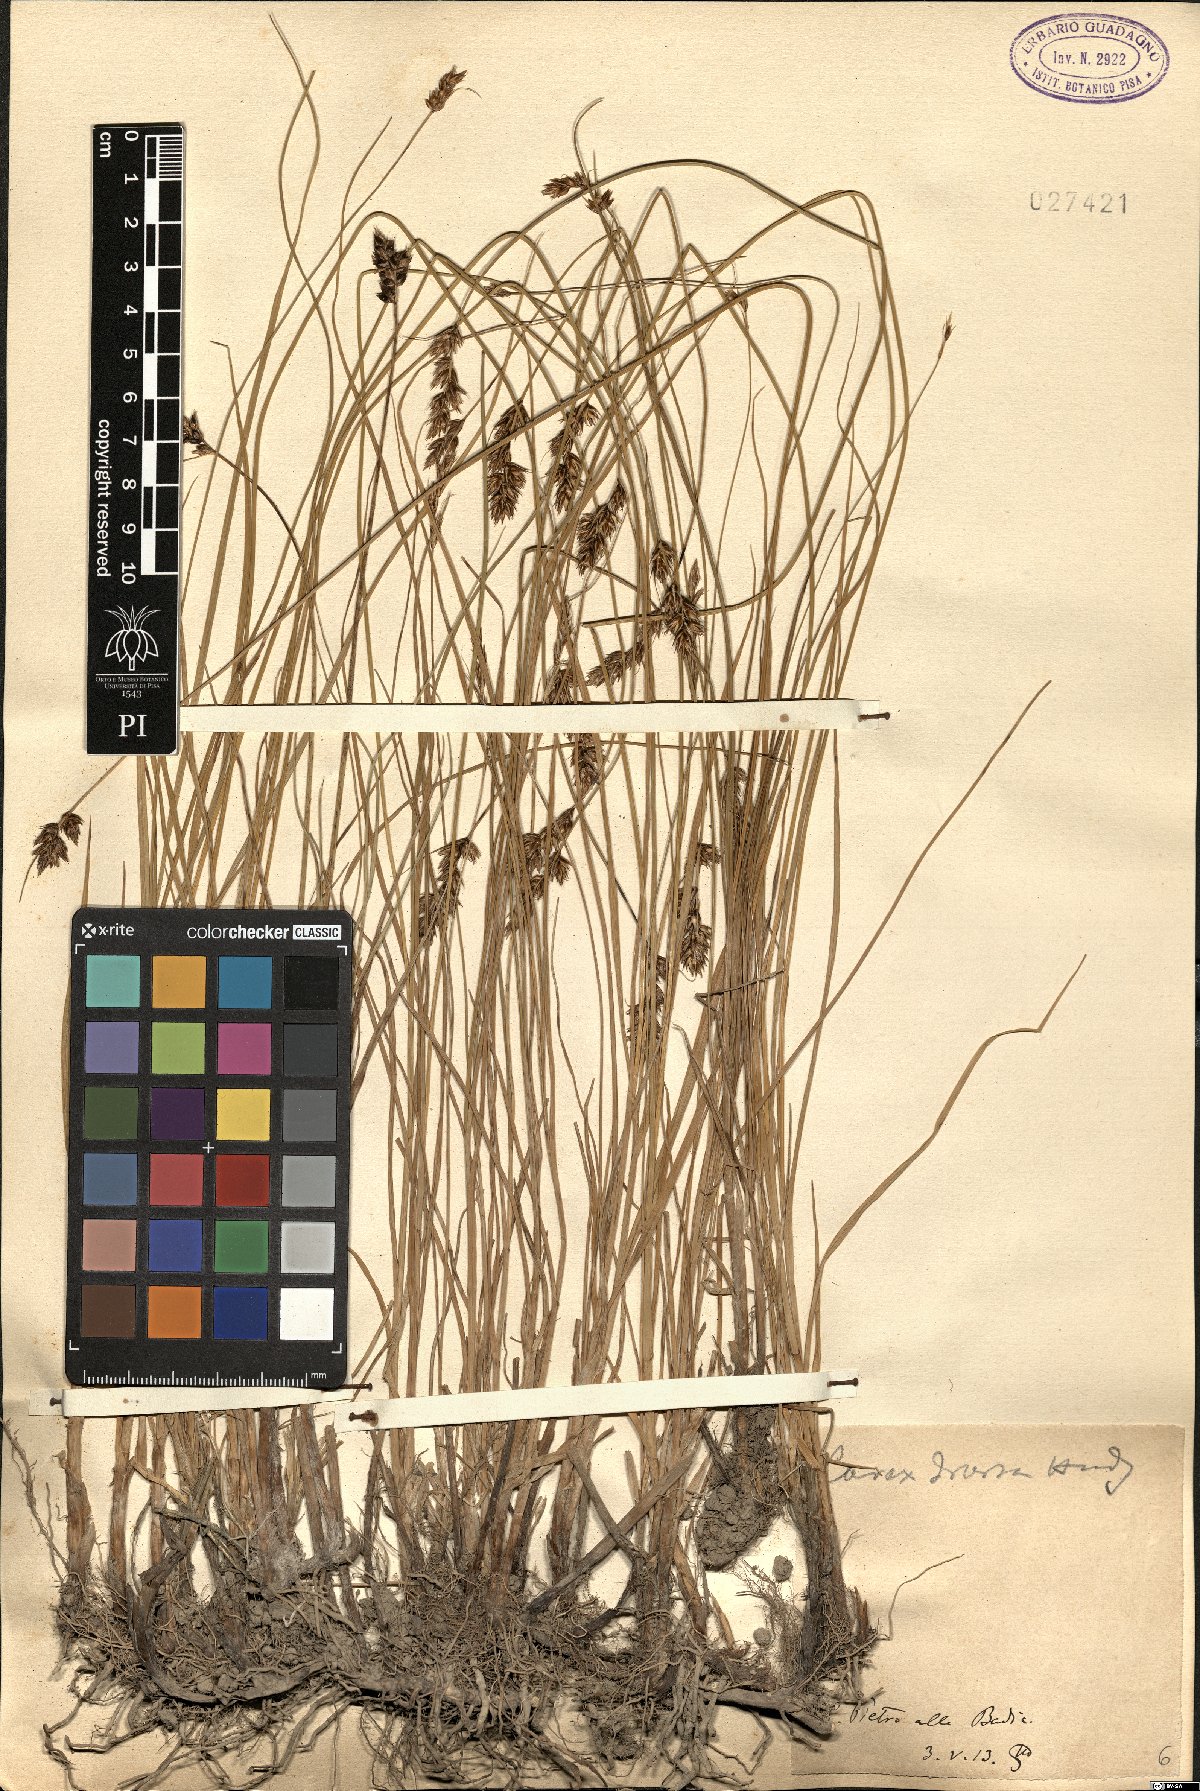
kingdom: Plantae
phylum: Tracheophyta
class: Liliopsida
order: Poales
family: Cyperaceae
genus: Carex
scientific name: Carex divisa
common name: Divided sedge
